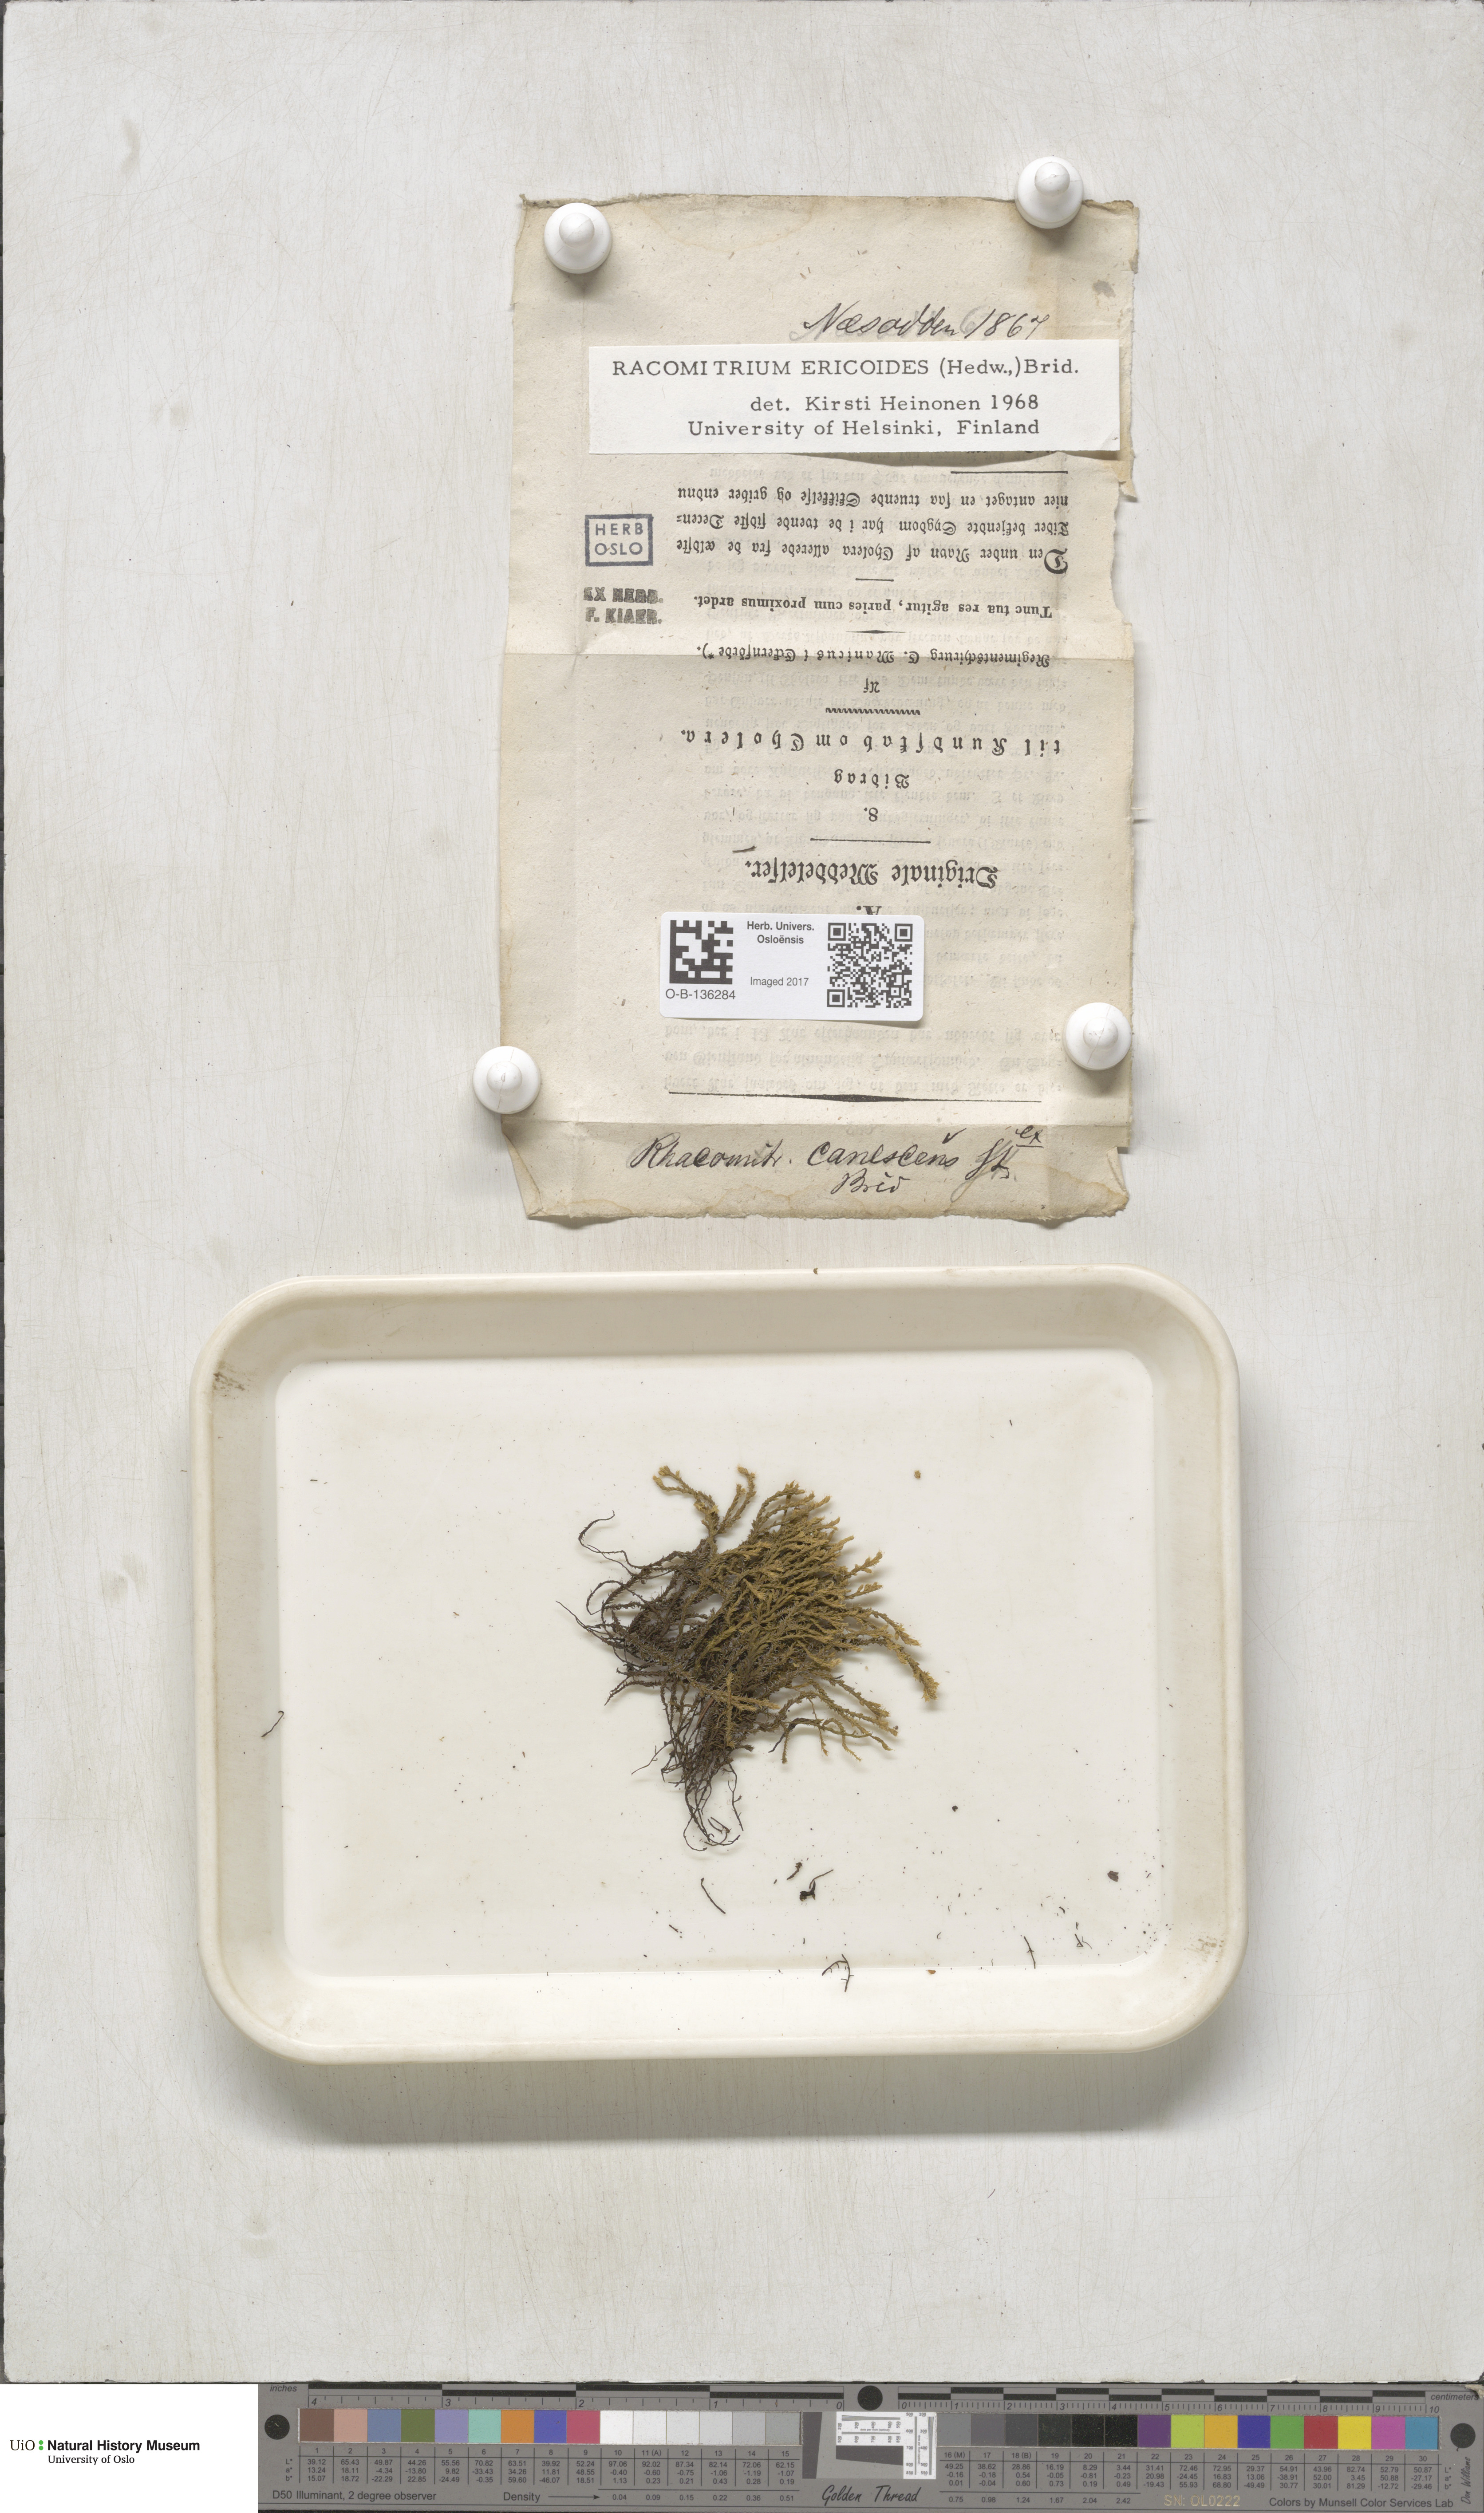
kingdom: Plantae
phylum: Bryophyta
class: Bryopsida
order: Grimmiales
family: Grimmiaceae
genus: Niphotrichum
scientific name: Niphotrichum ericoides
